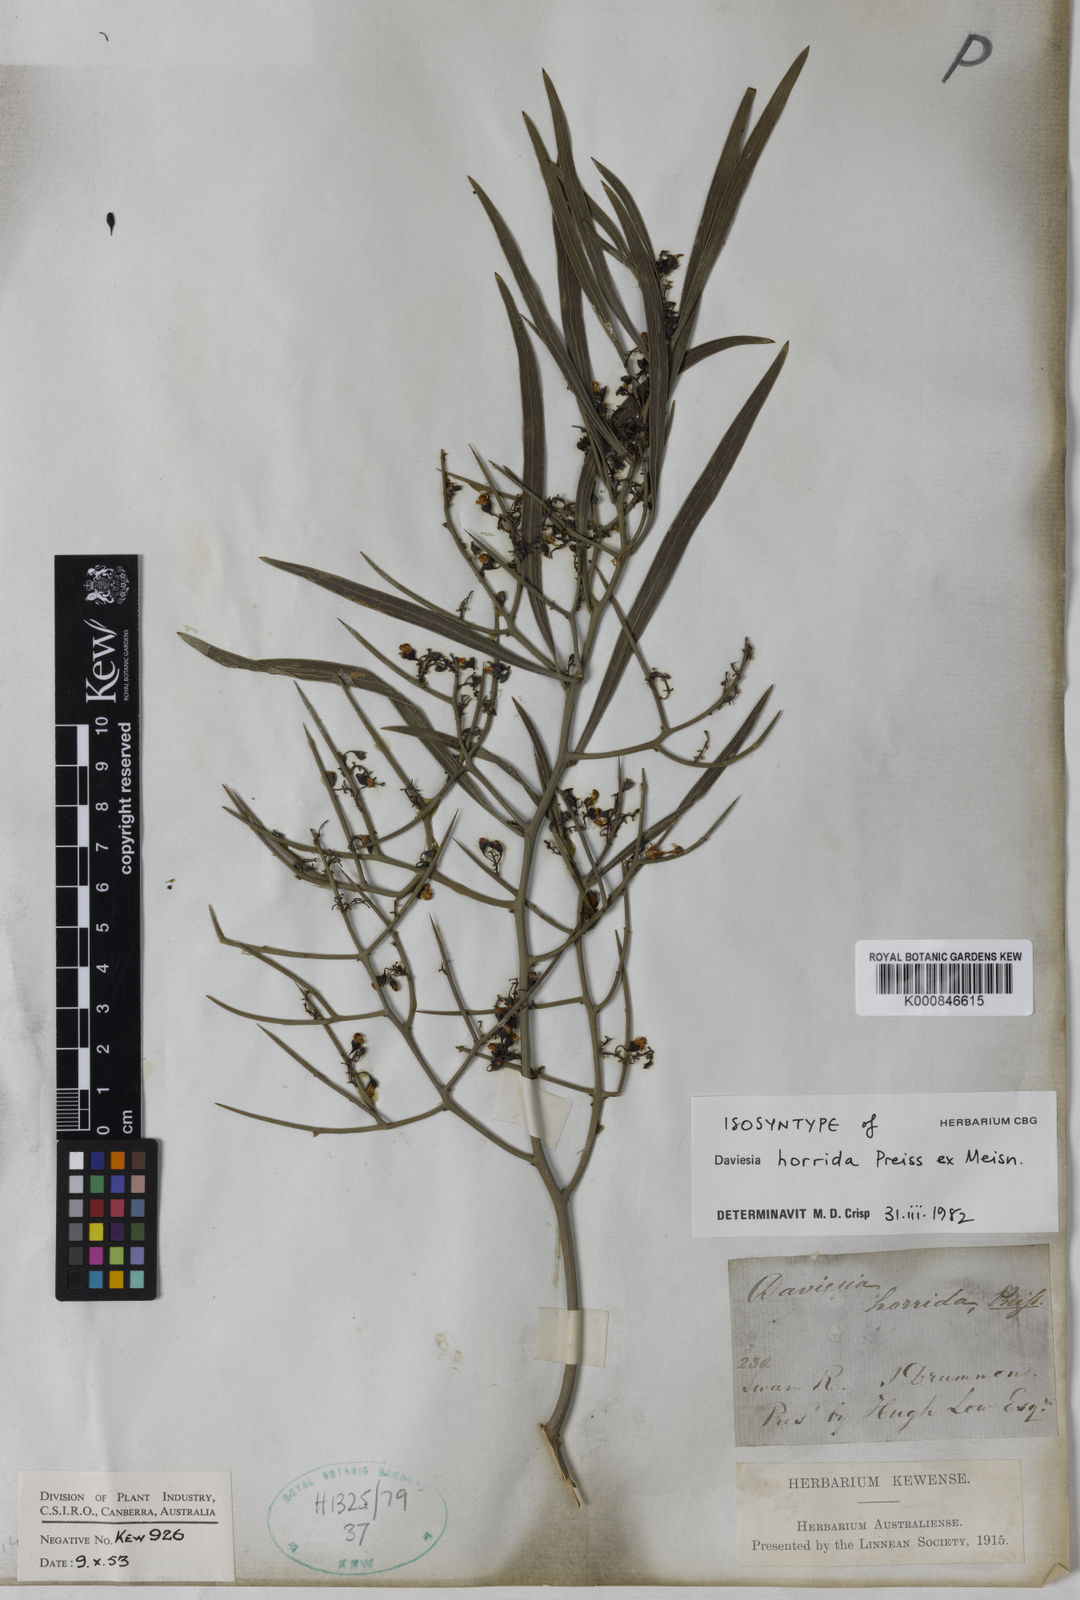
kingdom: Plantae
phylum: Tracheophyta
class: Magnoliopsida
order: Fabales
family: Fabaceae
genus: Daviesia
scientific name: Daviesia horrida
